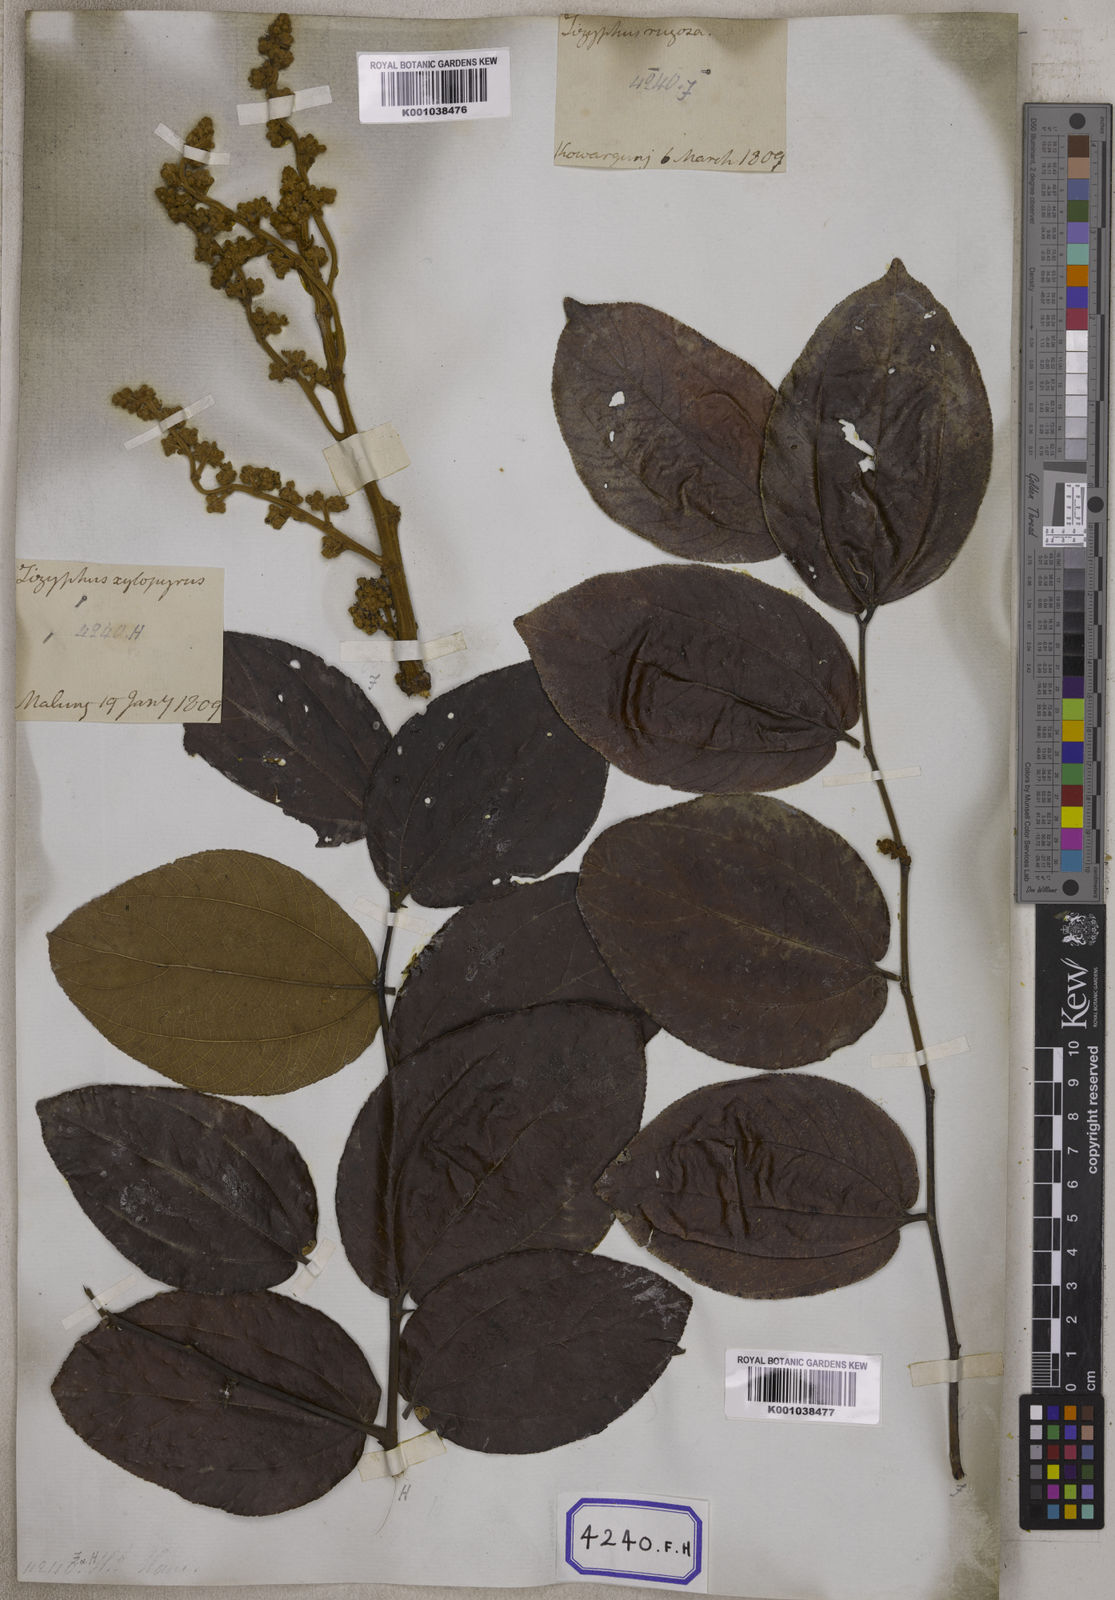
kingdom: Plantae
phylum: Tracheophyta
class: Magnoliopsida
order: Rosales
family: Rhamnaceae
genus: Ziziphus
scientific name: Ziziphus rugosa
